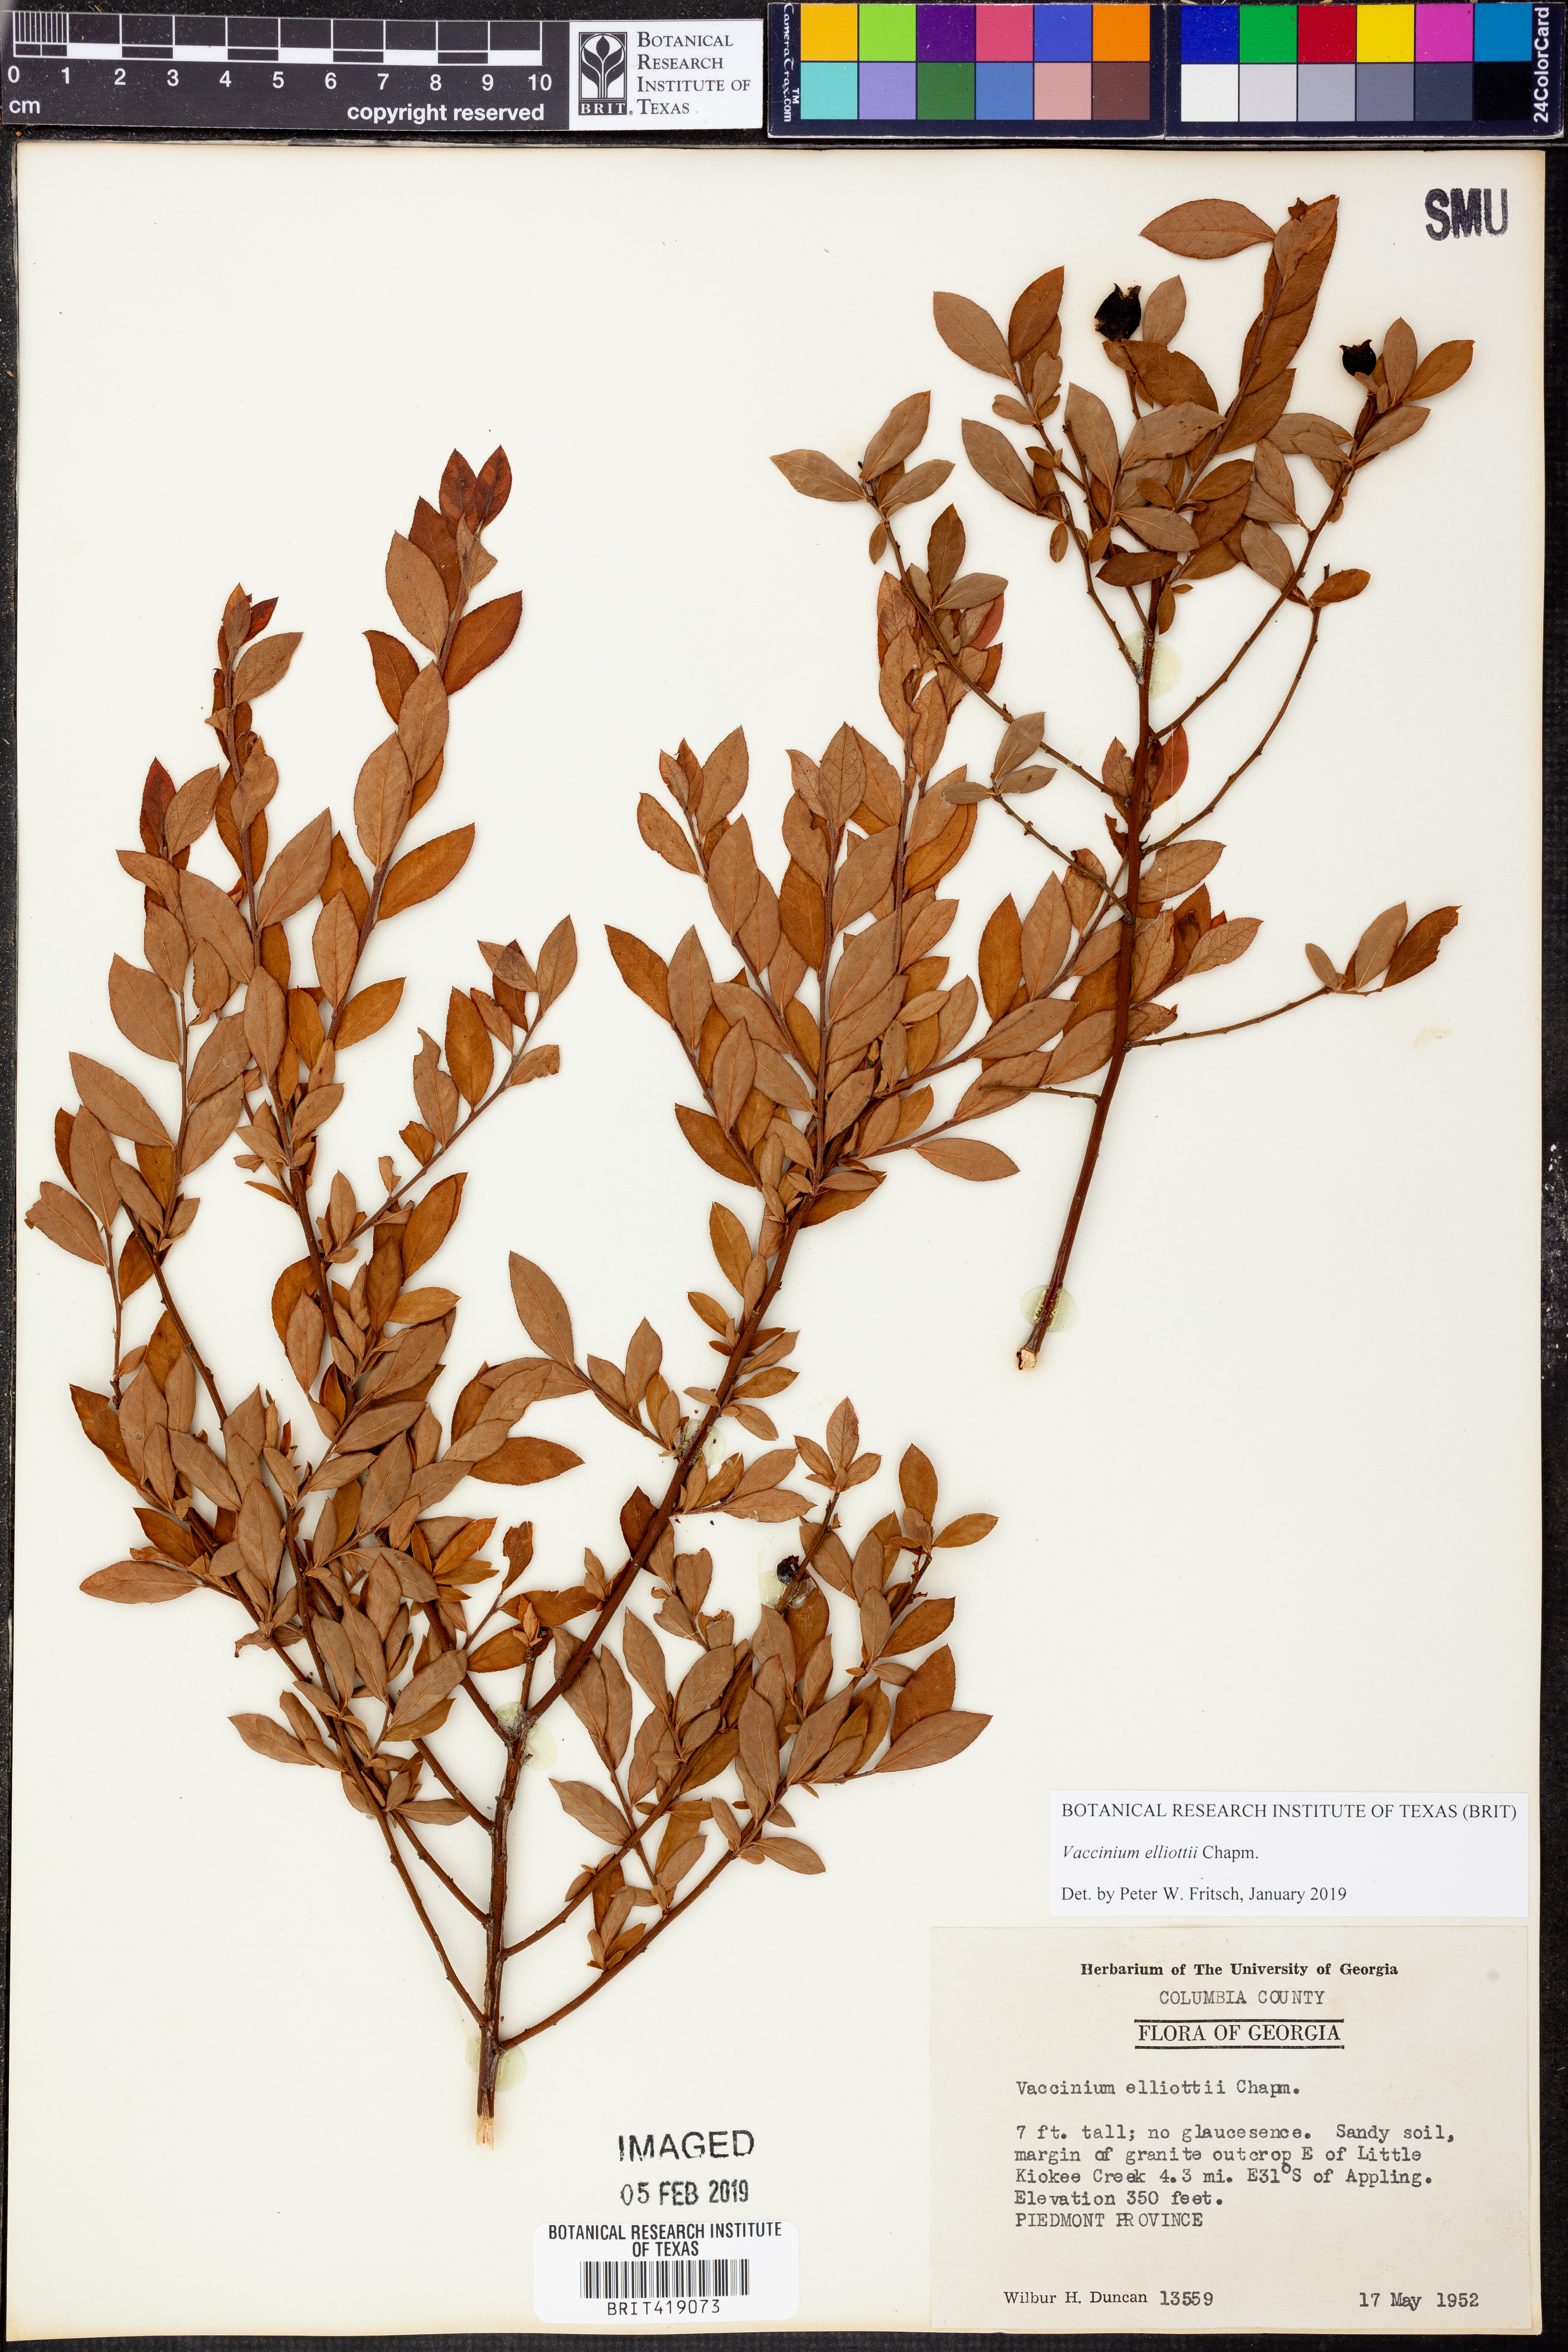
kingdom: Plantae
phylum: Tracheophyta
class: Magnoliopsida
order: Ericales
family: Ericaceae
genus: Vaccinium
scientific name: Vaccinium corymbosum
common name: Blueberry
